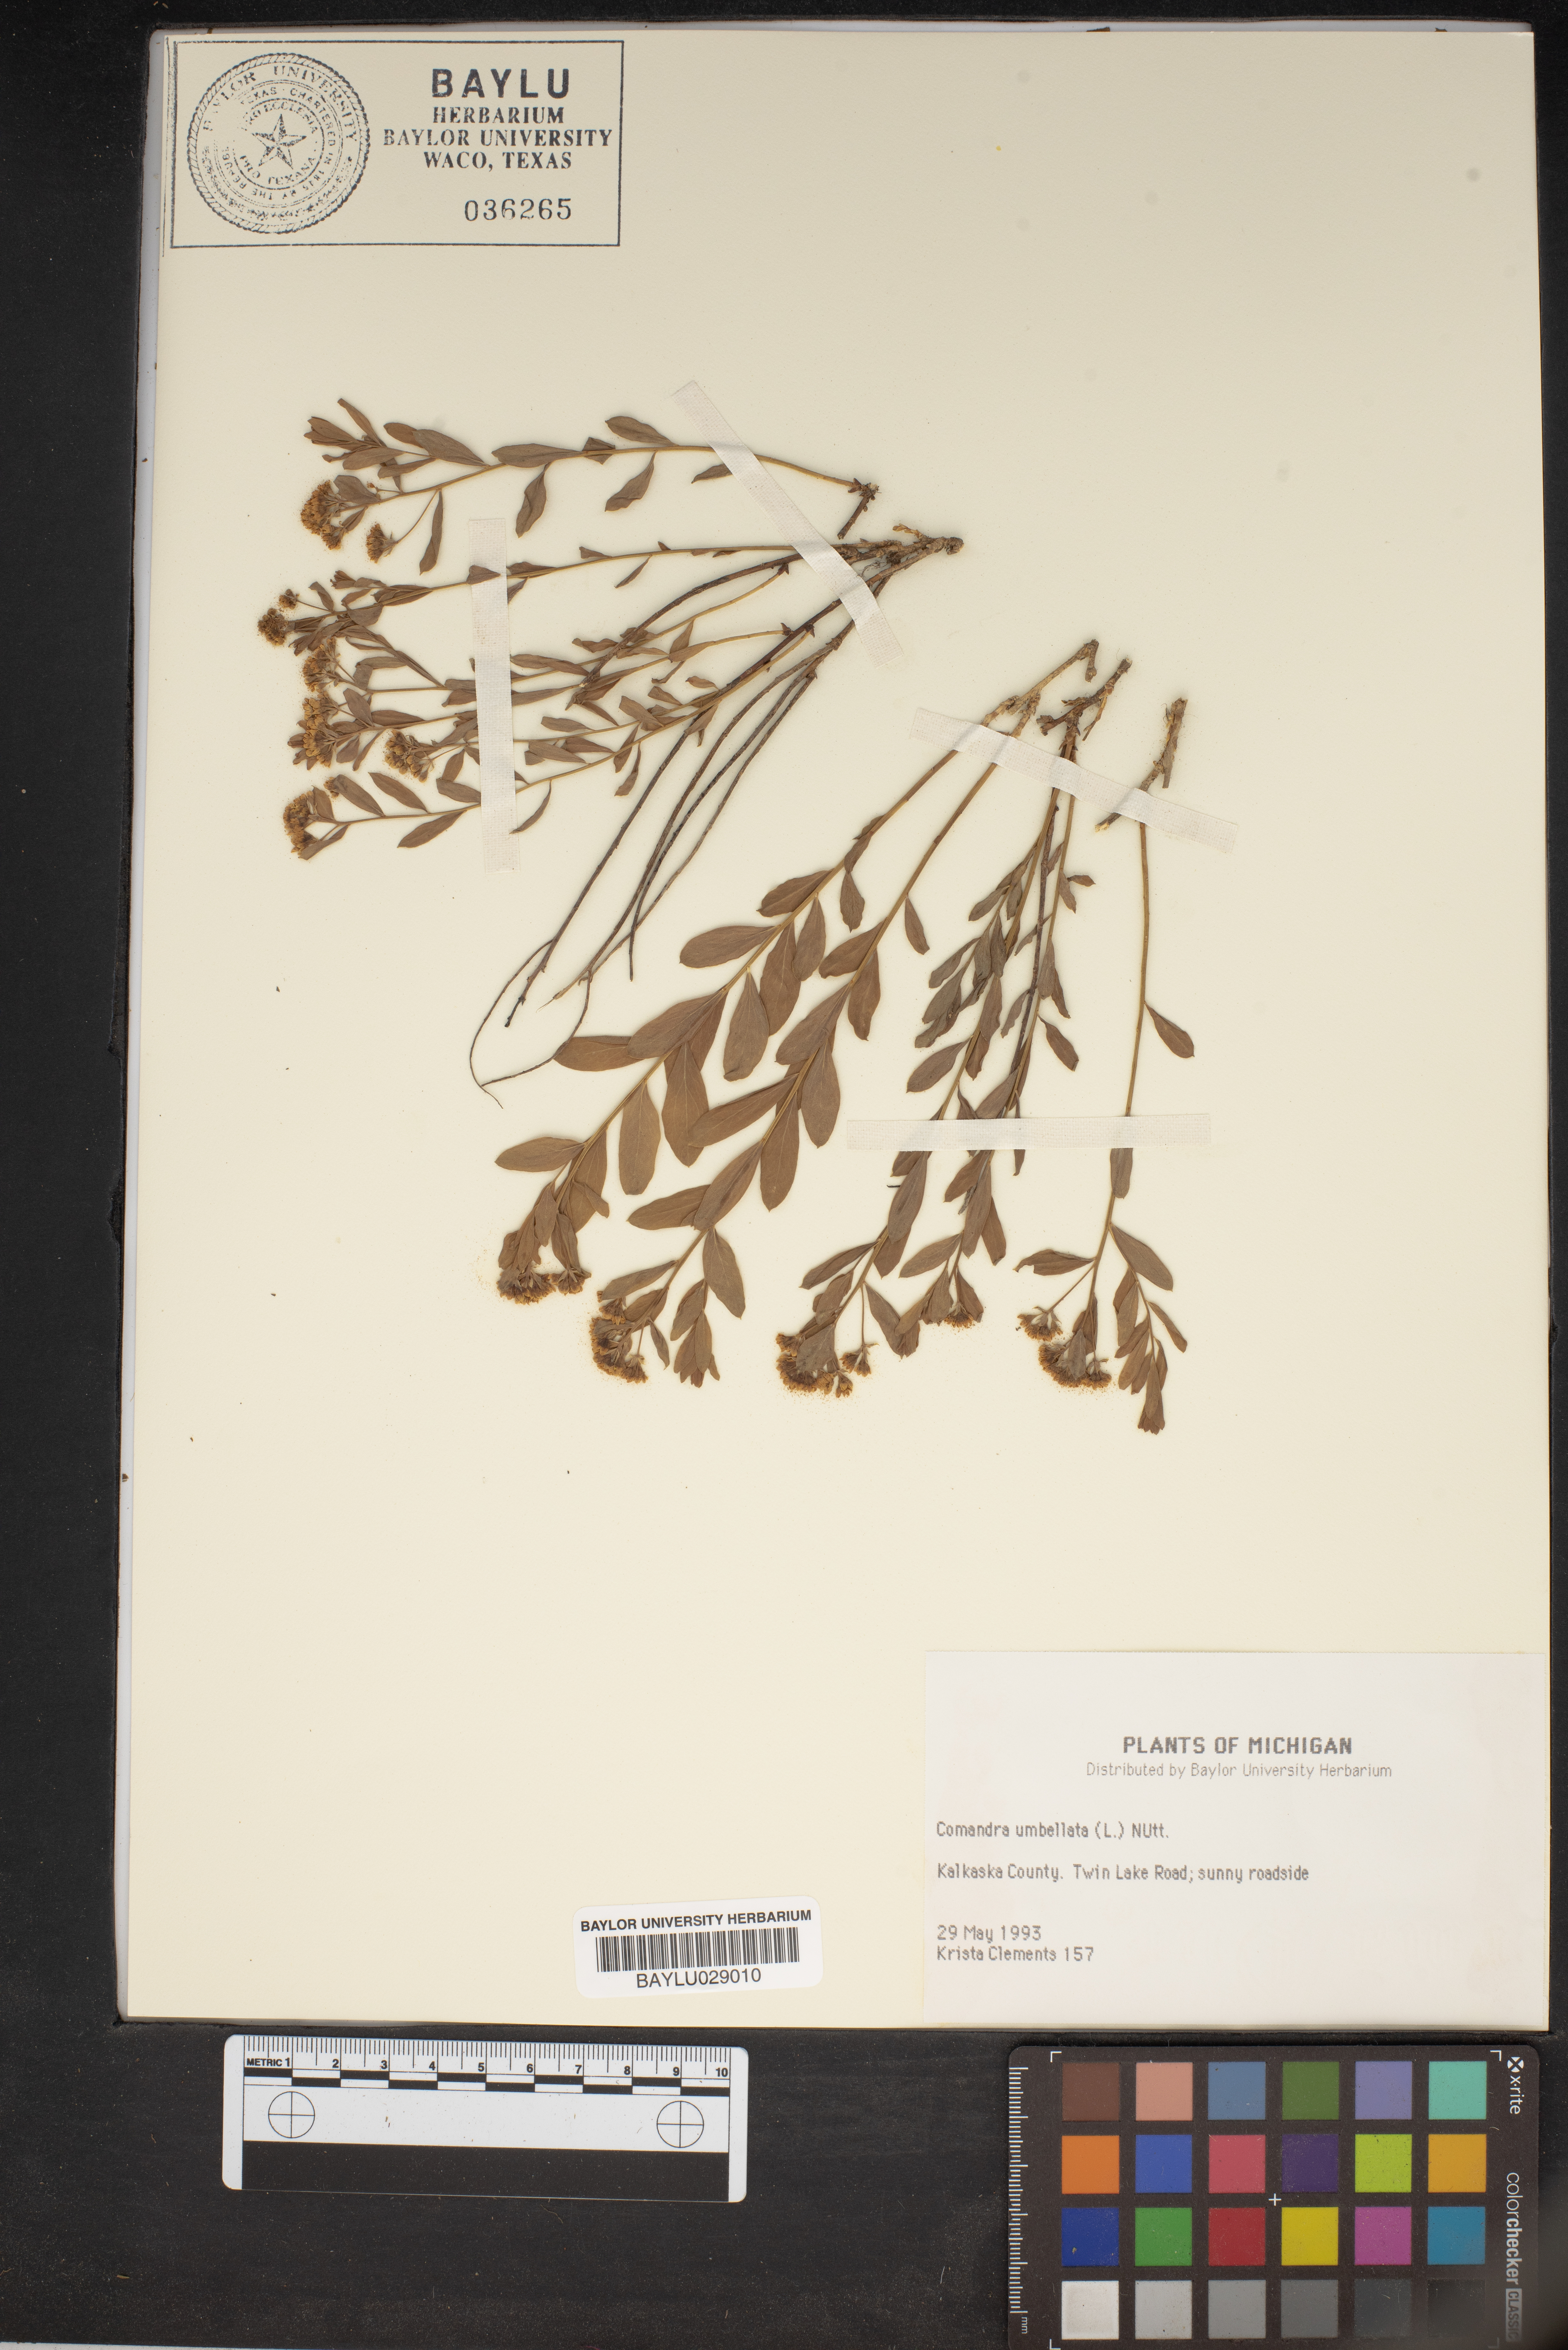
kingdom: Plantae
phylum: Tracheophyta
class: Magnoliopsida
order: Santalales
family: Comandraceae
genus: Comandra
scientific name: Comandra umbellata
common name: Bastard toadflax
